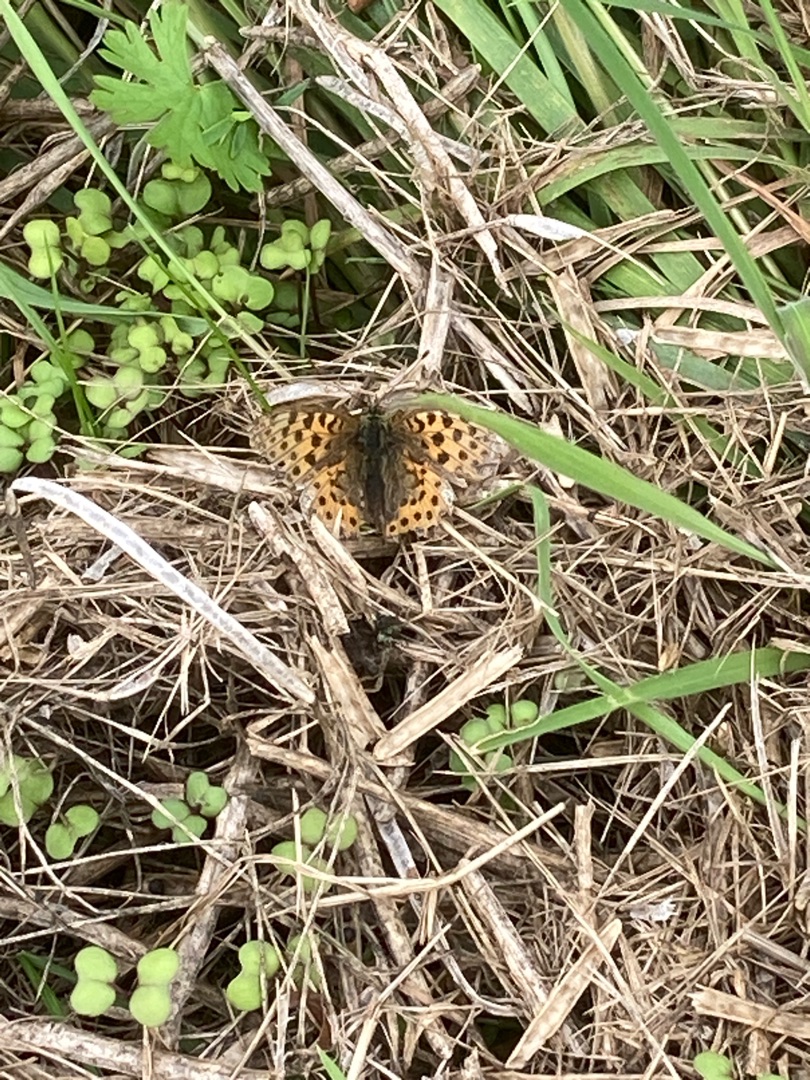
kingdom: Animalia
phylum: Arthropoda
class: Insecta
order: Lepidoptera
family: Nymphalidae
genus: Issoria
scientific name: Issoria lathonia
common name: Storplettet perlemorsommerfugl
